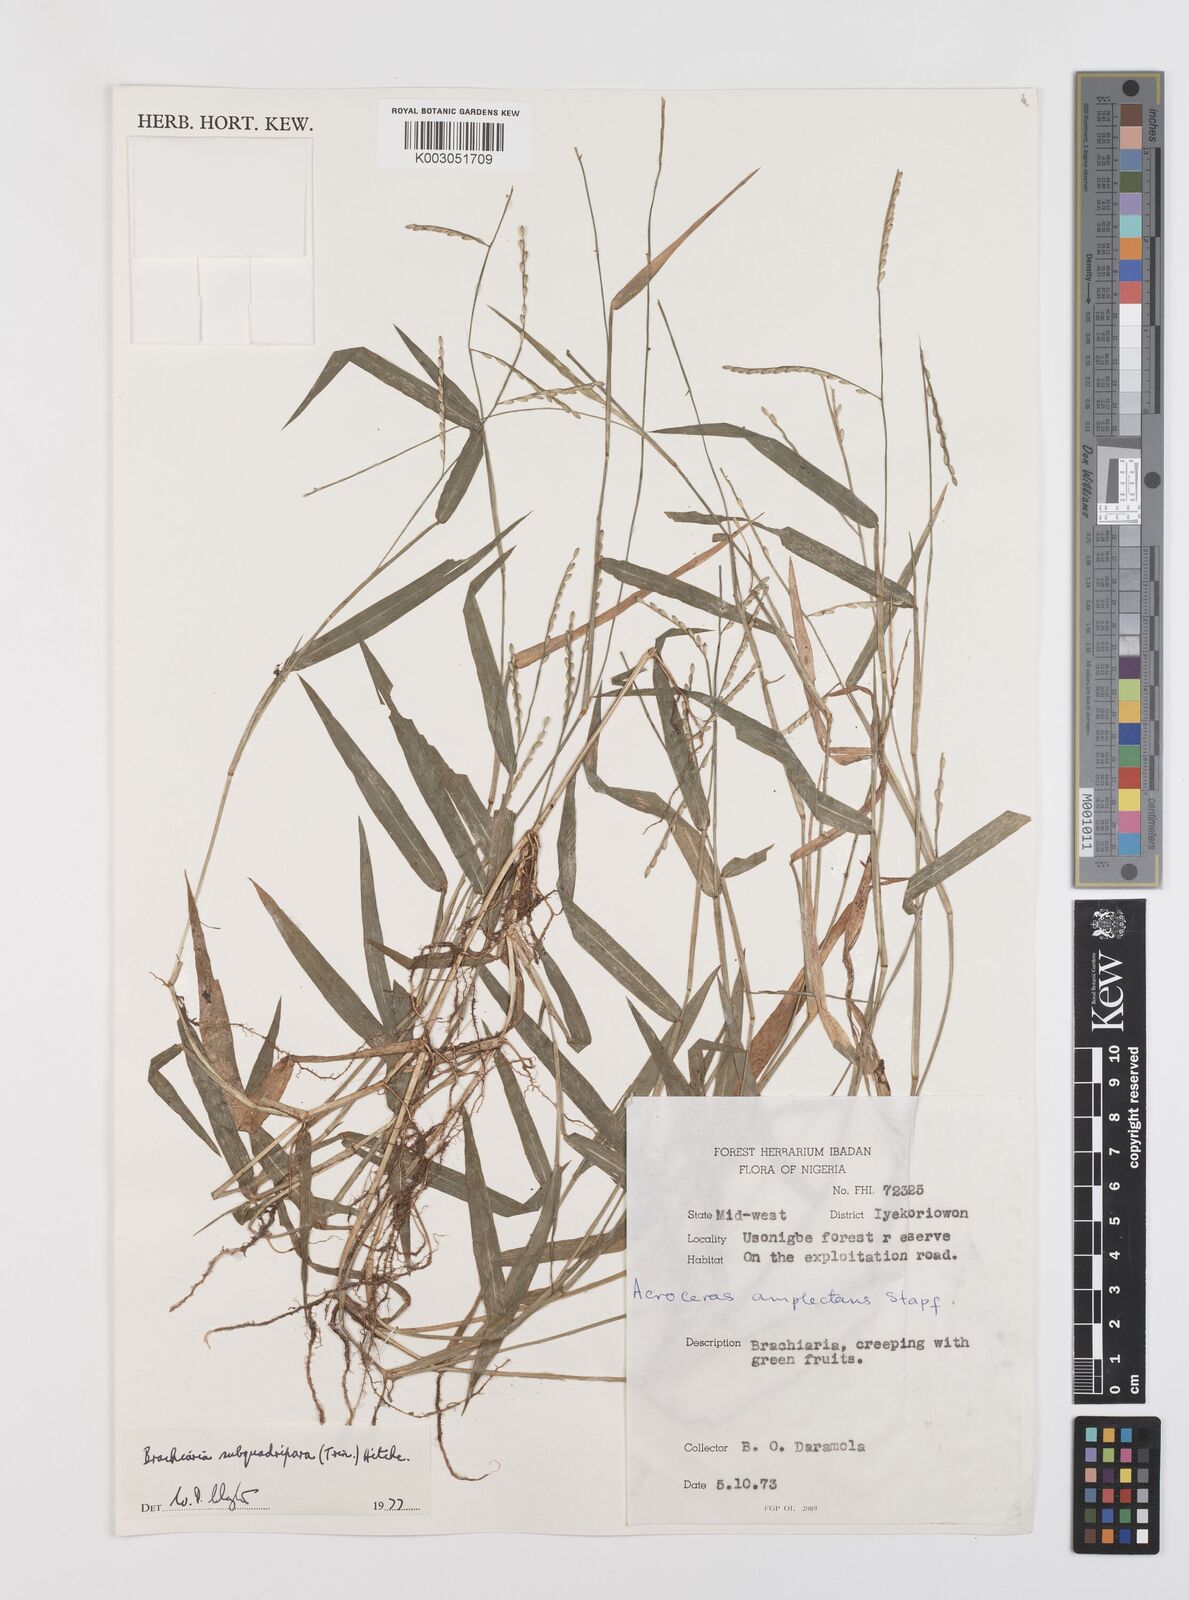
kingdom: Plantae
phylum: Tracheophyta
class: Liliopsida
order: Poales
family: Poaceae
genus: Urochloa
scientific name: Urochloa subquadripara
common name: Armgrass millet
